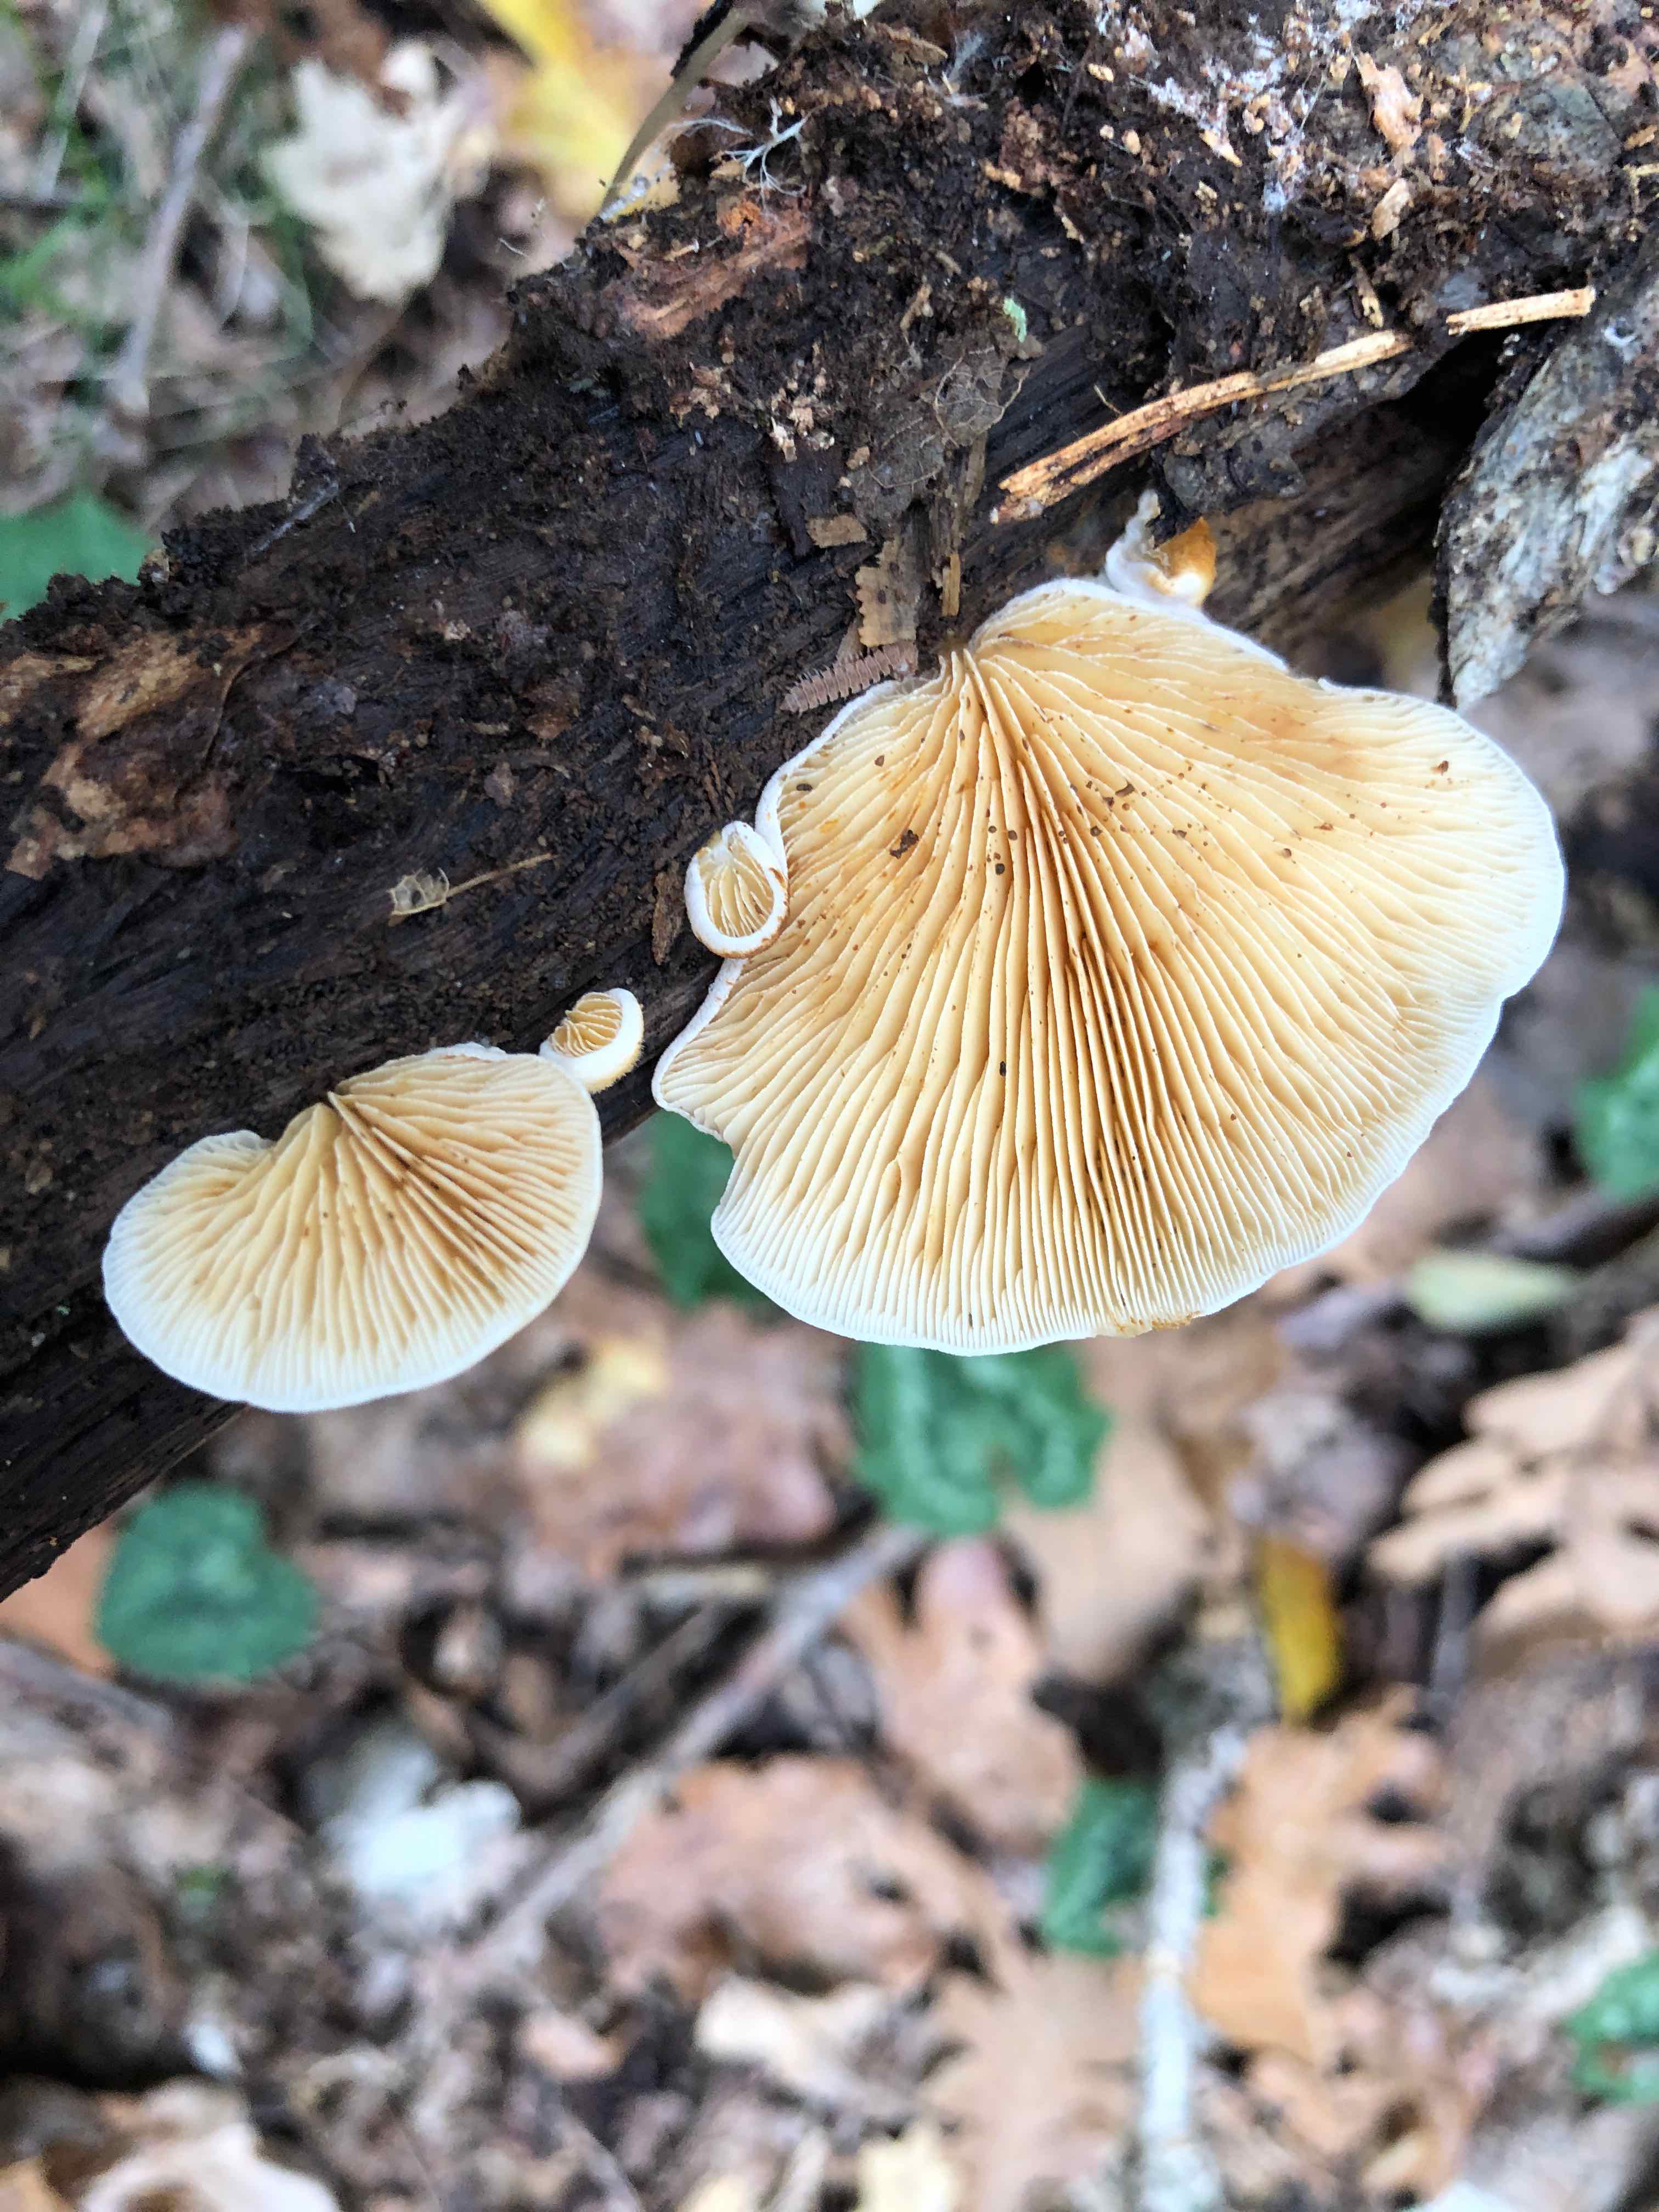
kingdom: Fungi
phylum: Basidiomycota
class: Agaricomycetes
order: Agaricales
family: Crepidotaceae
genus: Crepidotus
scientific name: Crepidotus macedonicus
